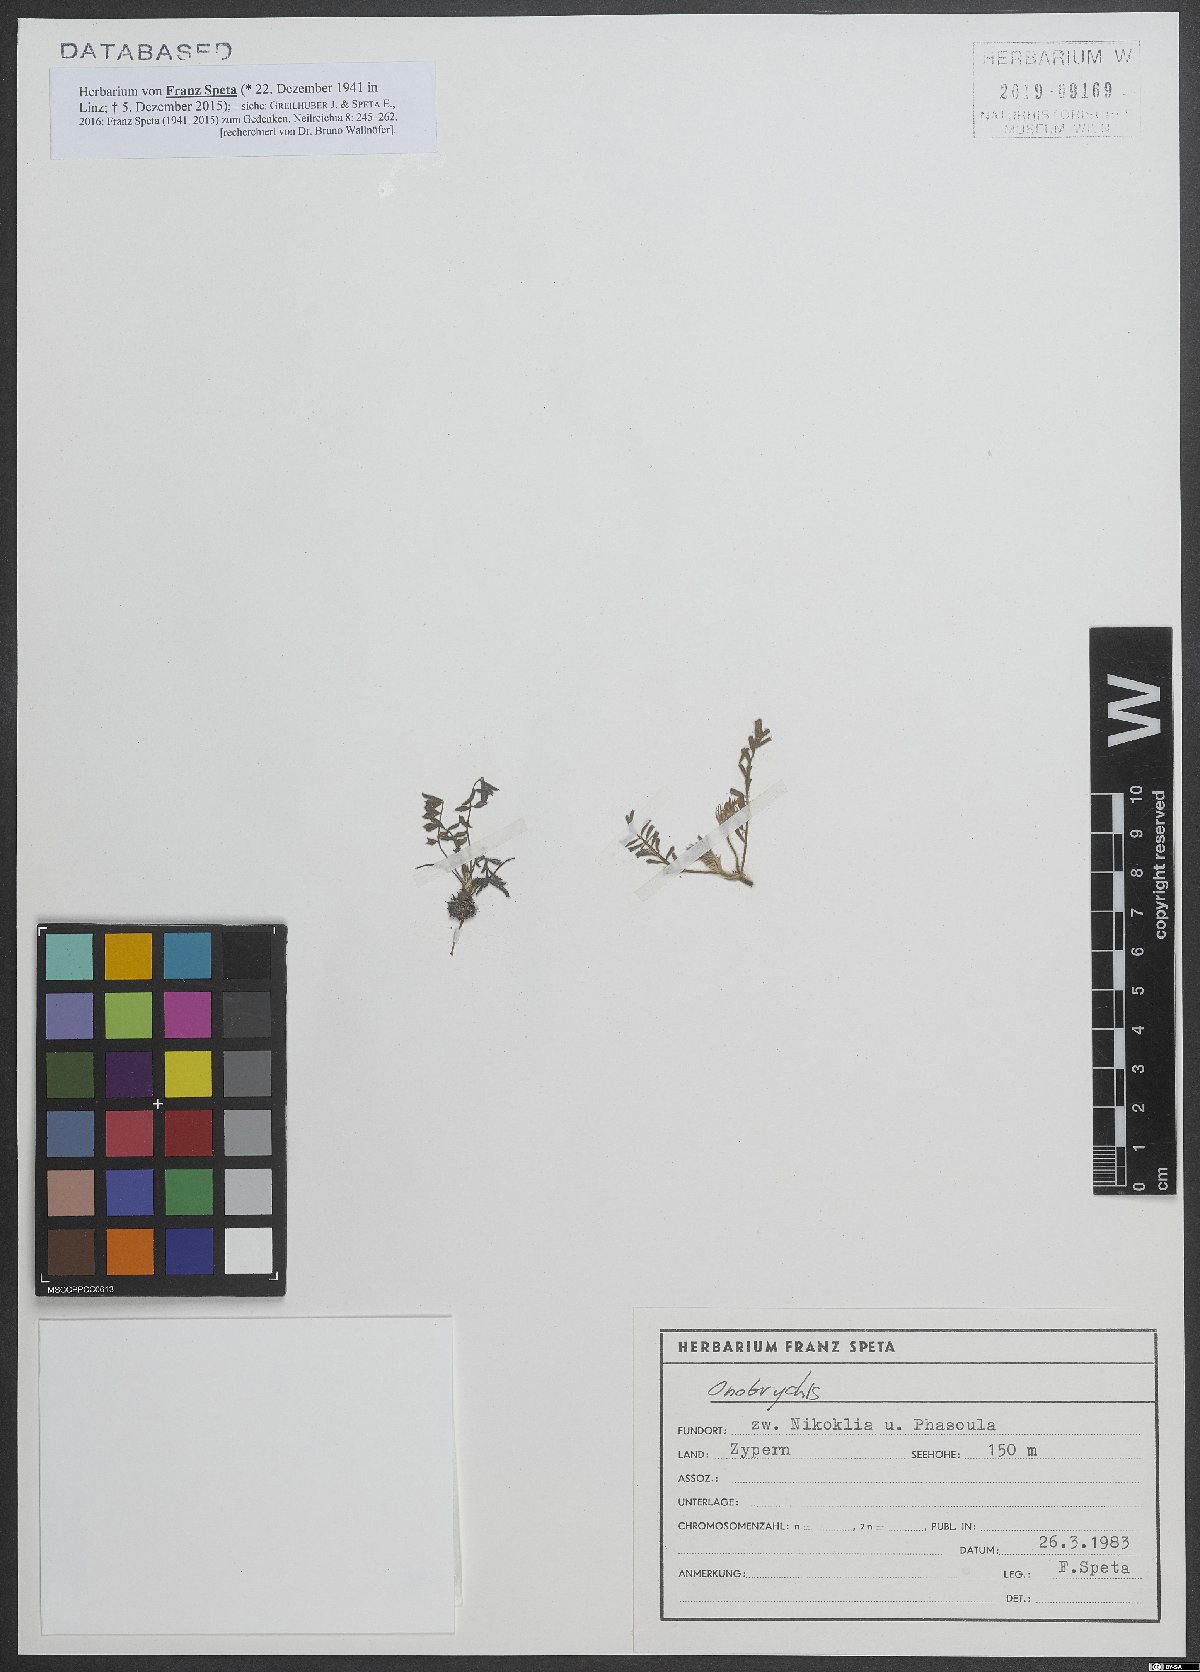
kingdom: Plantae
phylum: Tracheophyta
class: Magnoliopsida
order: Fabales
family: Fabaceae
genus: Onobrychis
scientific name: Onobrychis
